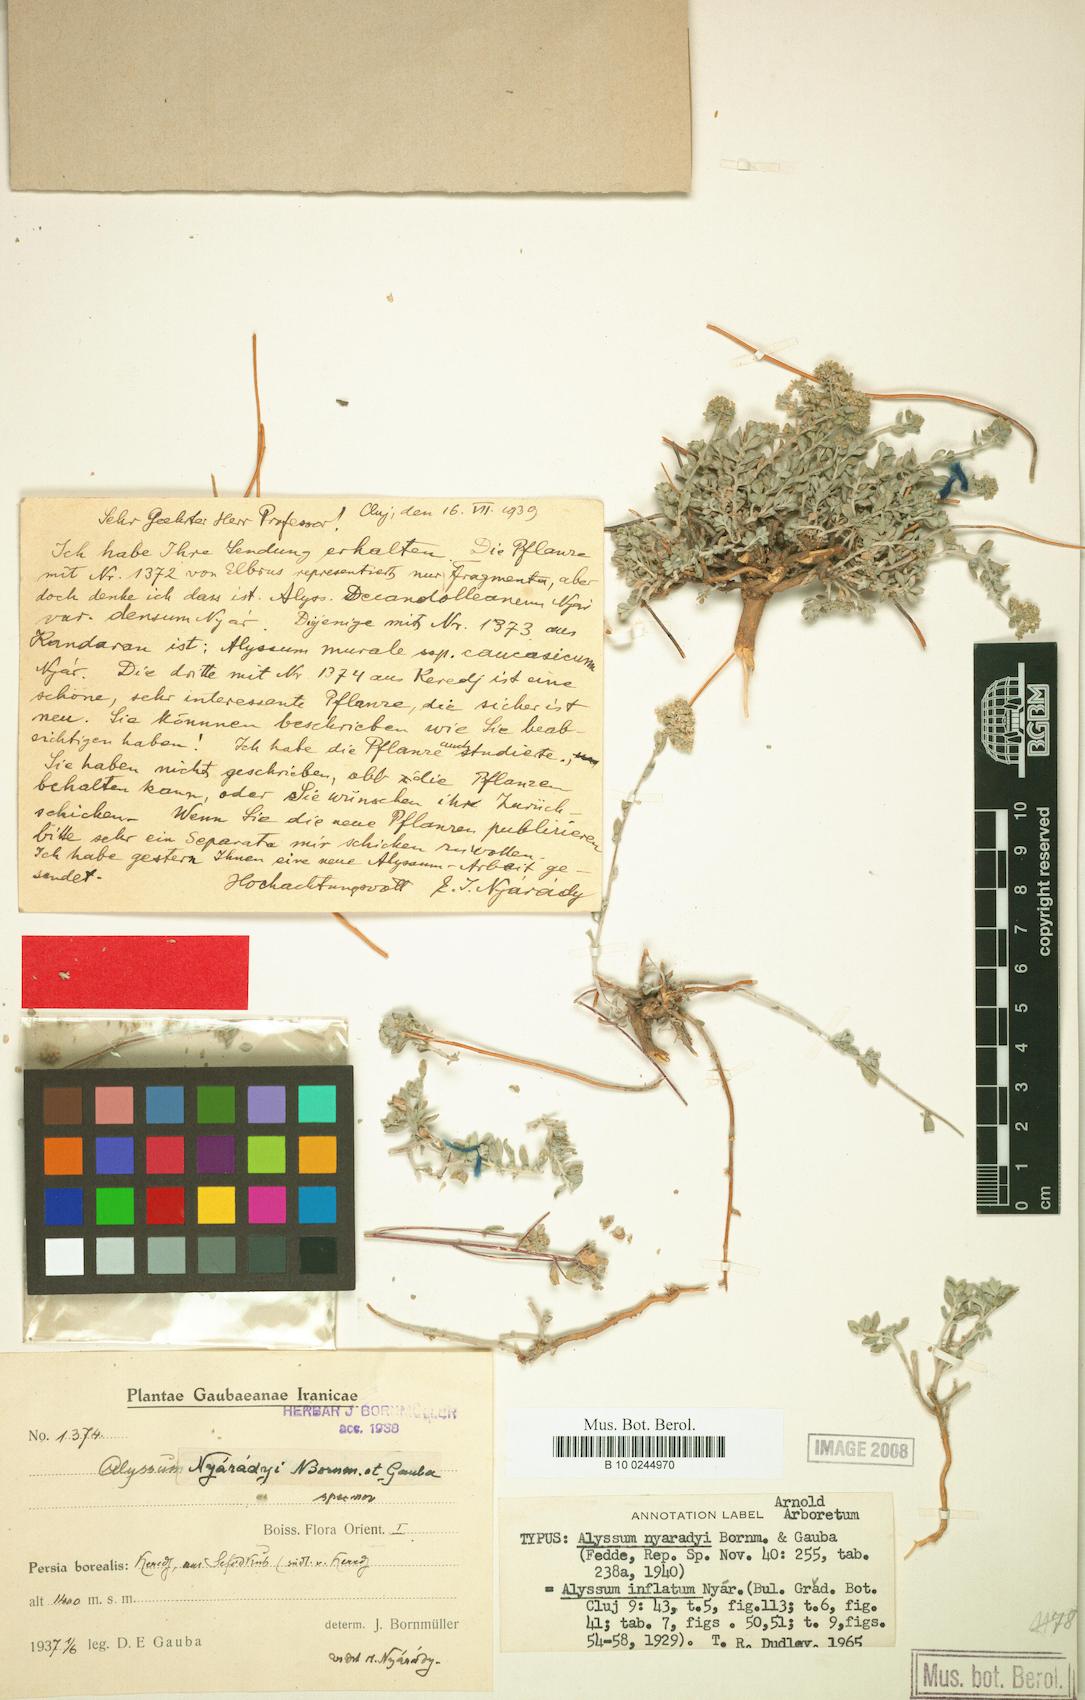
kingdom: Plantae
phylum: Tracheophyta
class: Magnoliopsida
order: Brassicales
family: Brassicaceae
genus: Odontarrhena
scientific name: Odontarrhena inflata
